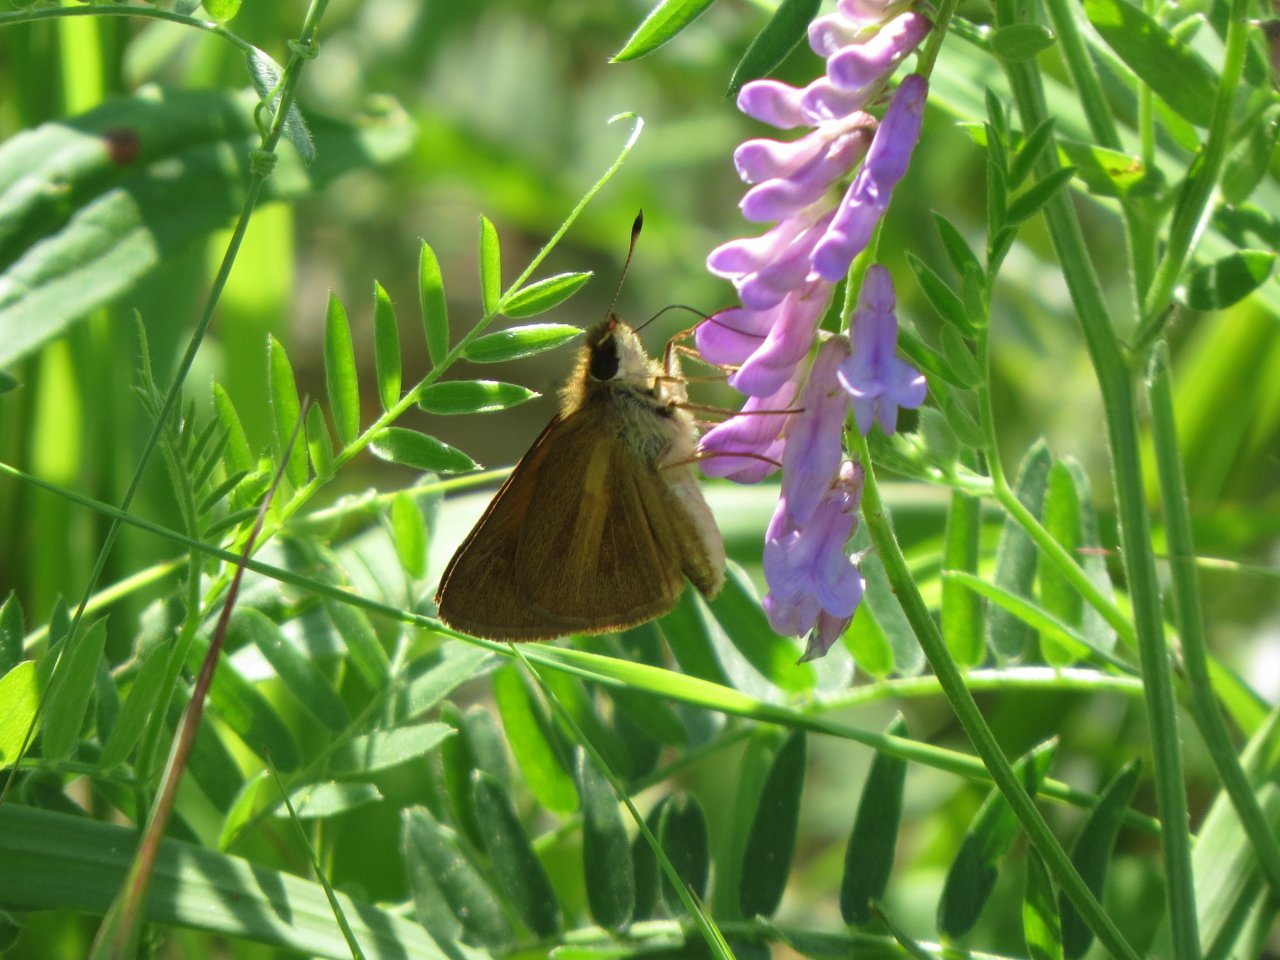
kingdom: Animalia
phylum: Arthropoda
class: Insecta
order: Lepidoptera
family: Hesperiidae
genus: Poanes
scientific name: Poanes viator
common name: Broad-winged Skipper
